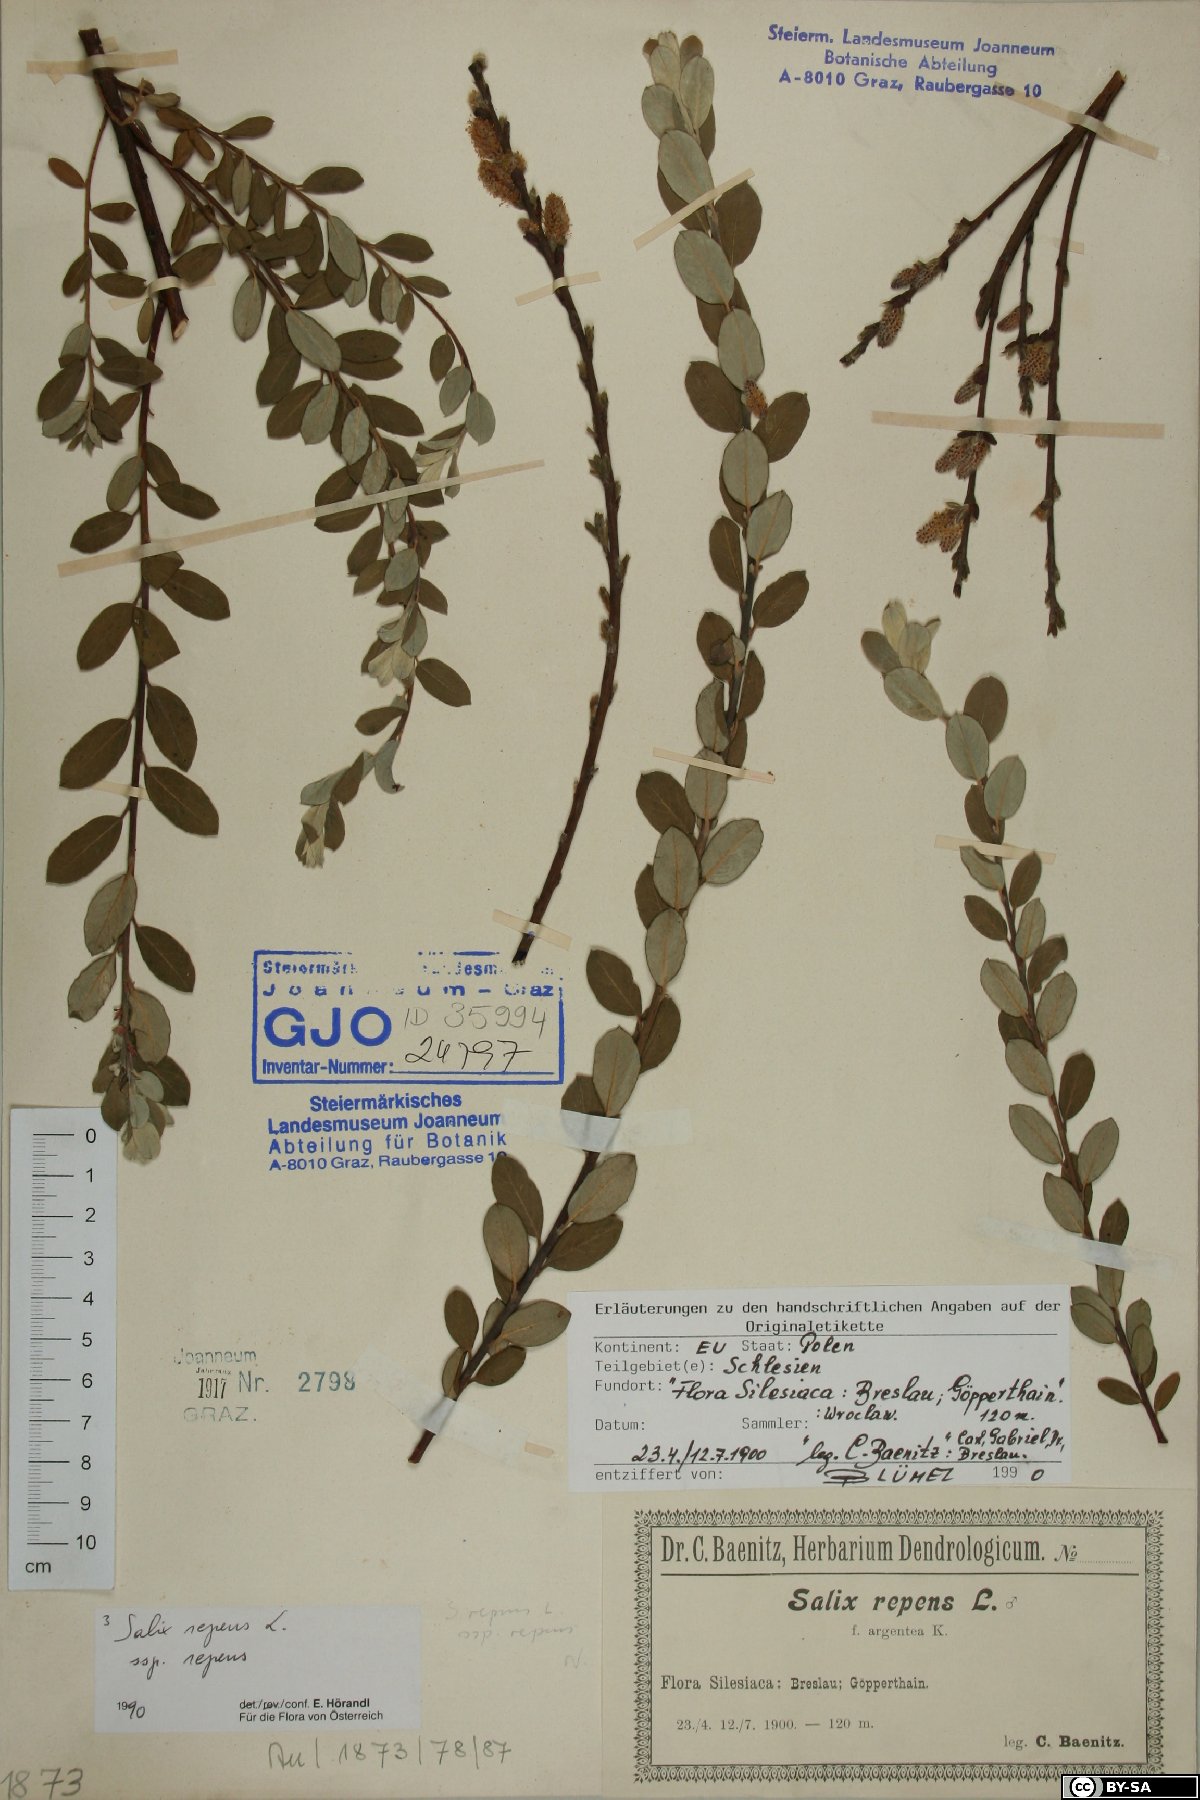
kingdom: Plantae
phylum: Tracheophyta
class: Magnoliopsida
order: Malpighiales
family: Salicaceae
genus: Salix
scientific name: Salix repens
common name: Creeping willow
